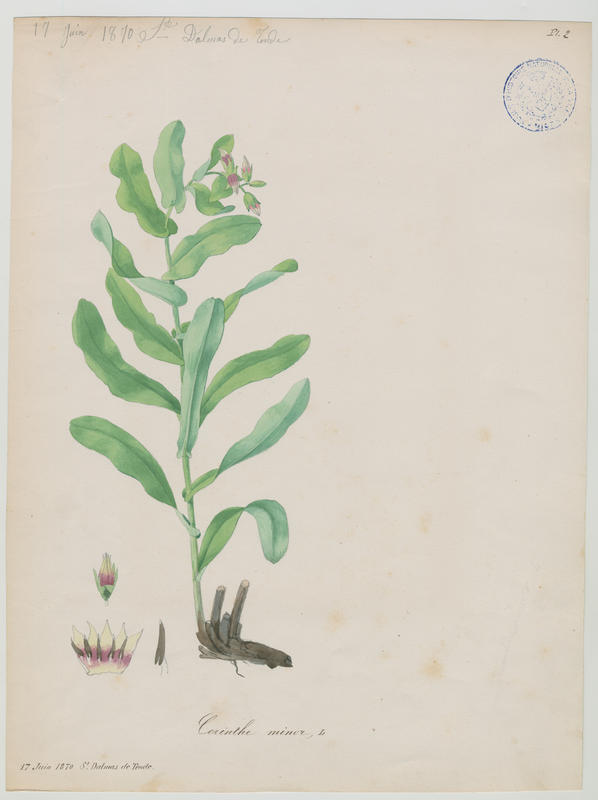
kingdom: Plantae
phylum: Tracheophyta
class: Magnoliopsida
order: Boraginales
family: Boraginaceae
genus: Cerinthe
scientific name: Cerinthe minor
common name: Lesser honeywort
